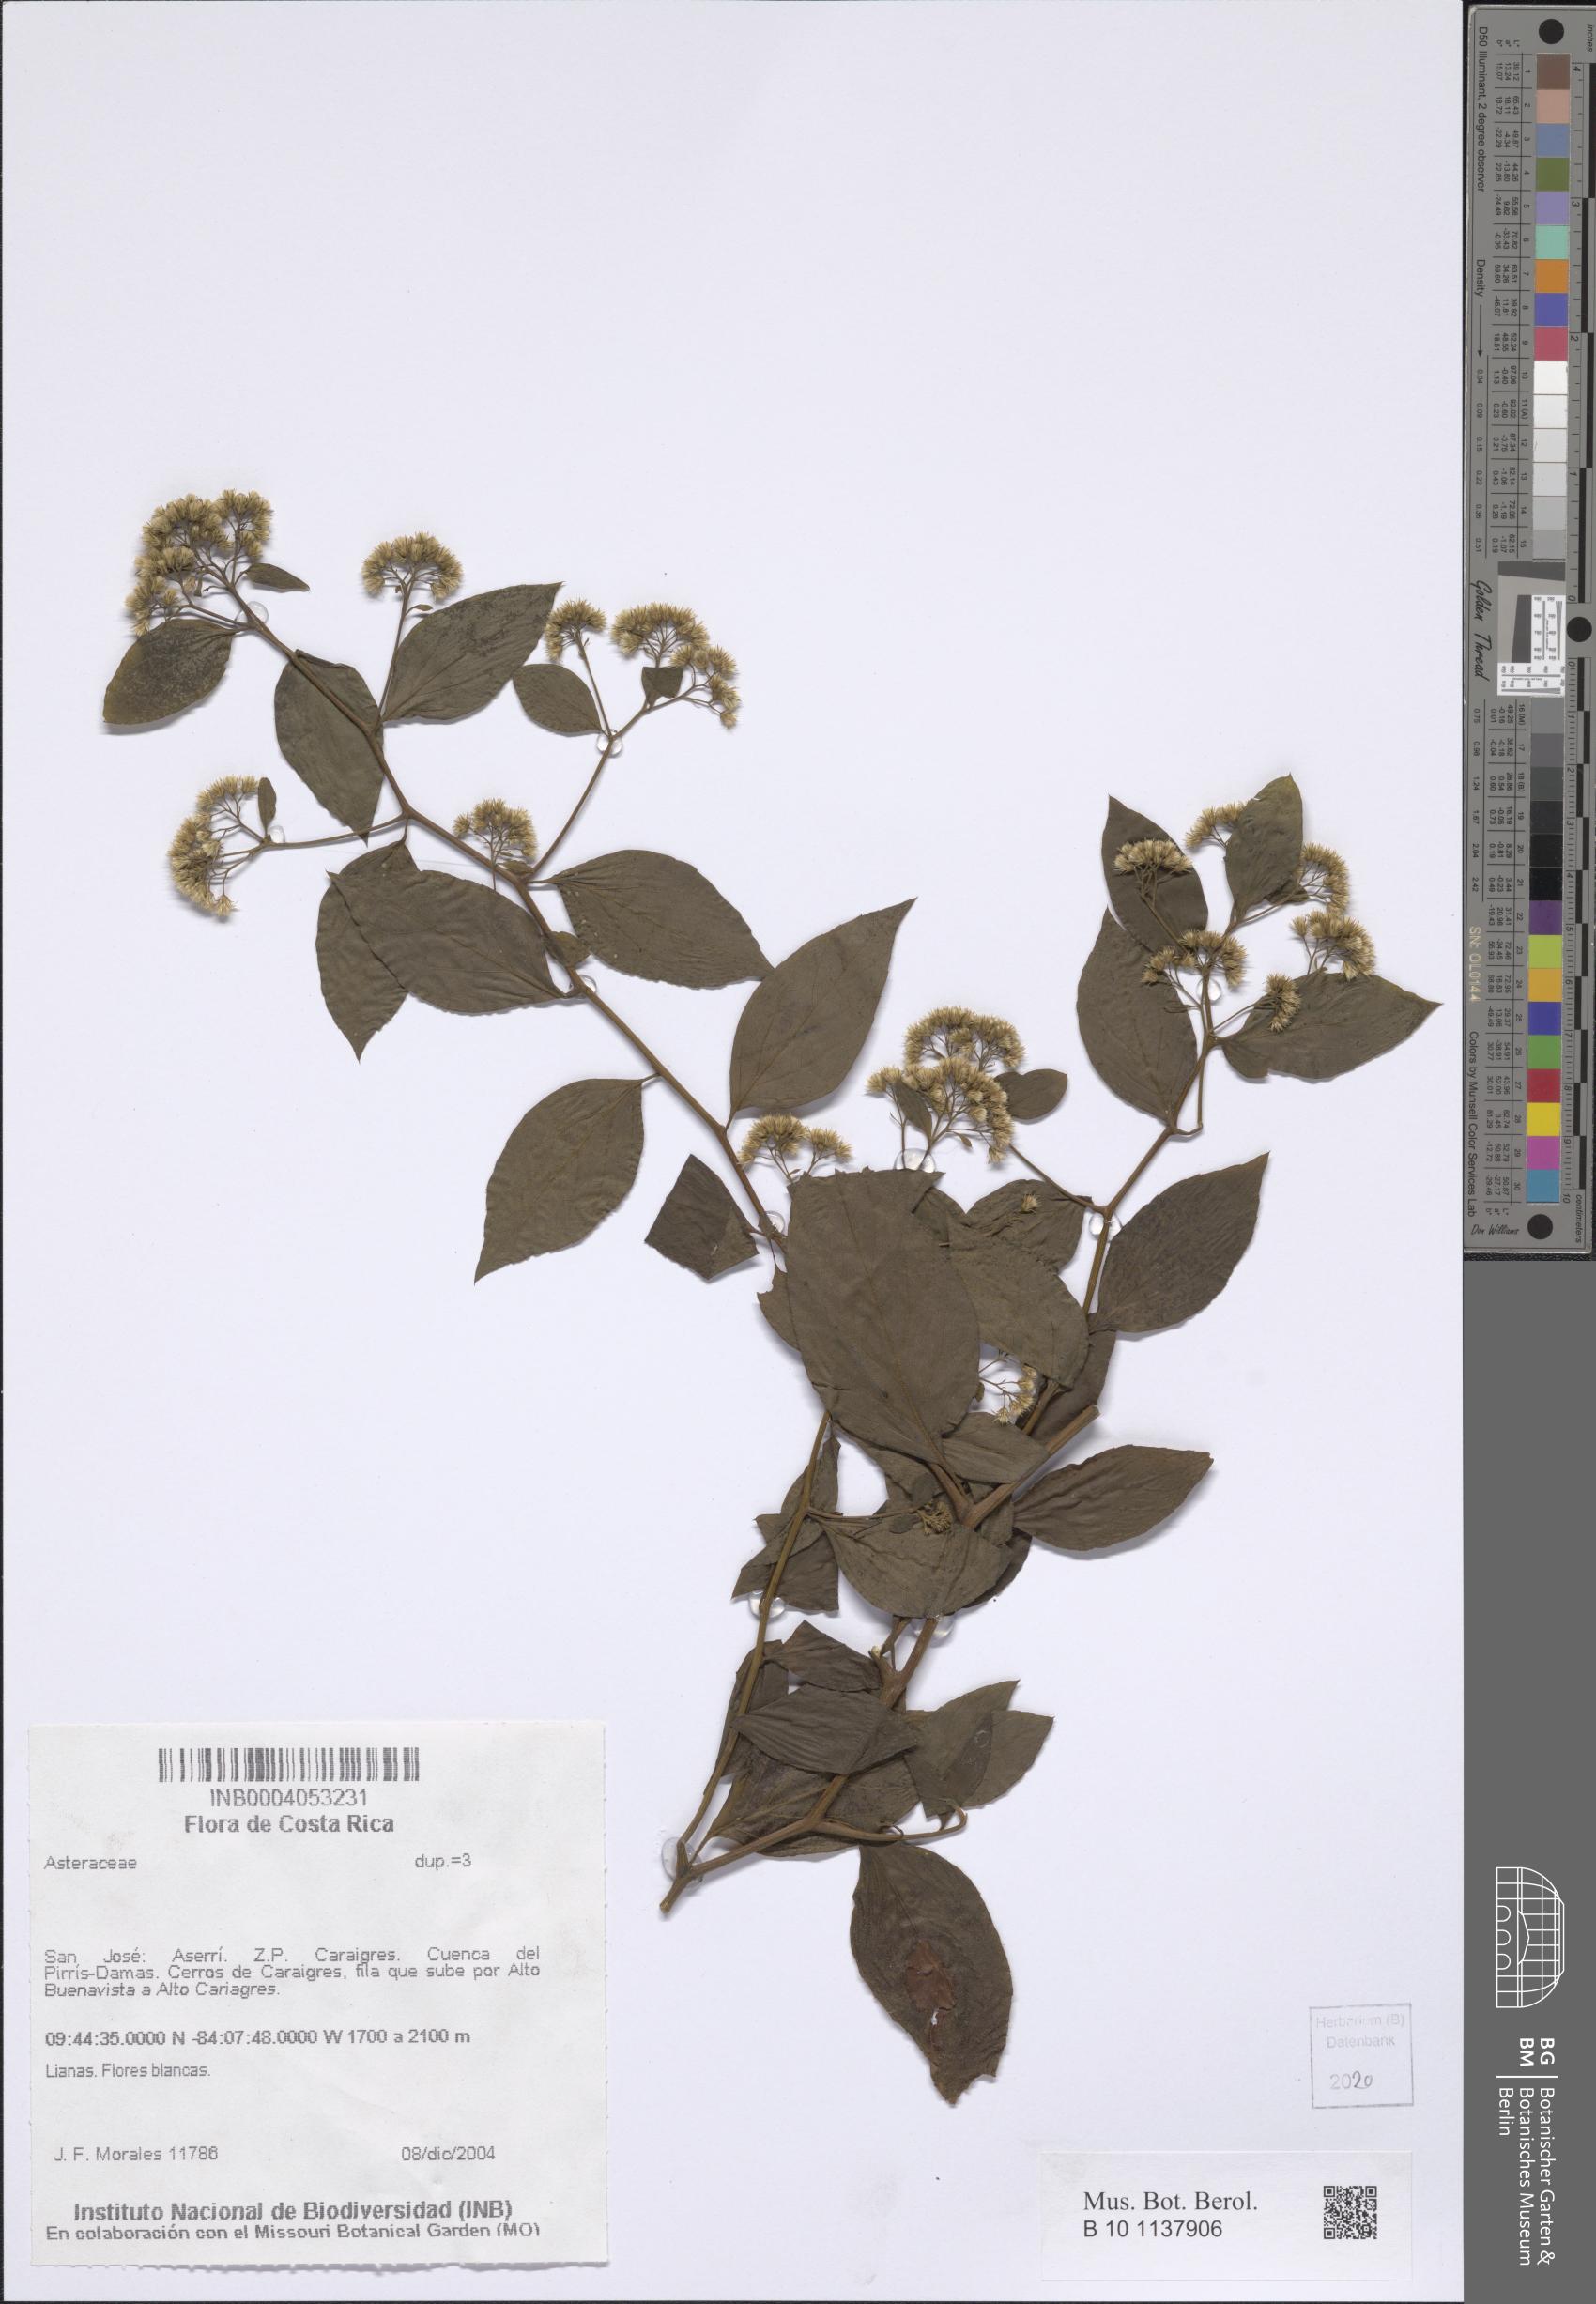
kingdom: Plantae
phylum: Tracheophyta
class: Magnoliopsida
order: Asterales
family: Asteraceae
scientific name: Asteraceae
